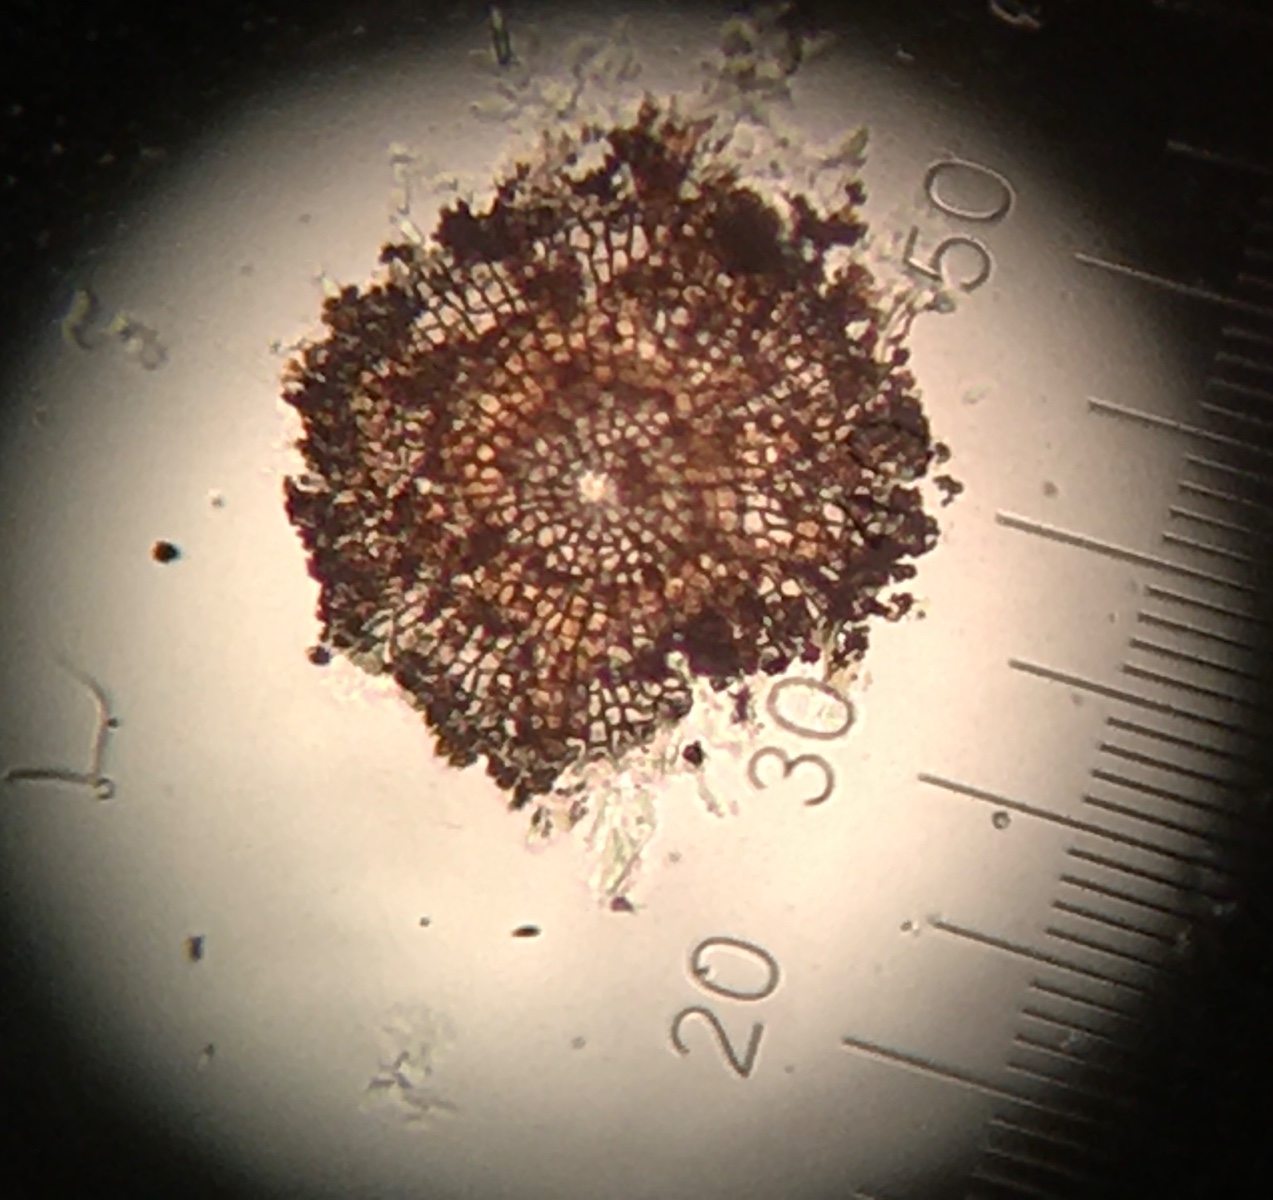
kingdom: Fungi
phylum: Ascomycota
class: Dothideomycetes
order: Microthyriales
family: Microthyriaceae
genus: Microthyrium
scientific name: Microthyrium ciliatum
